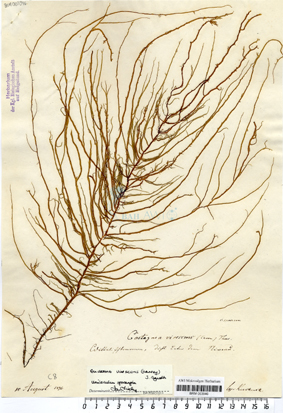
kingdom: Chromista
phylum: Ochrophyta
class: Phaeophyceae
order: Ectocarpales
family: Chordariaceae
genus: Eudesme
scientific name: Eudesme virescens
